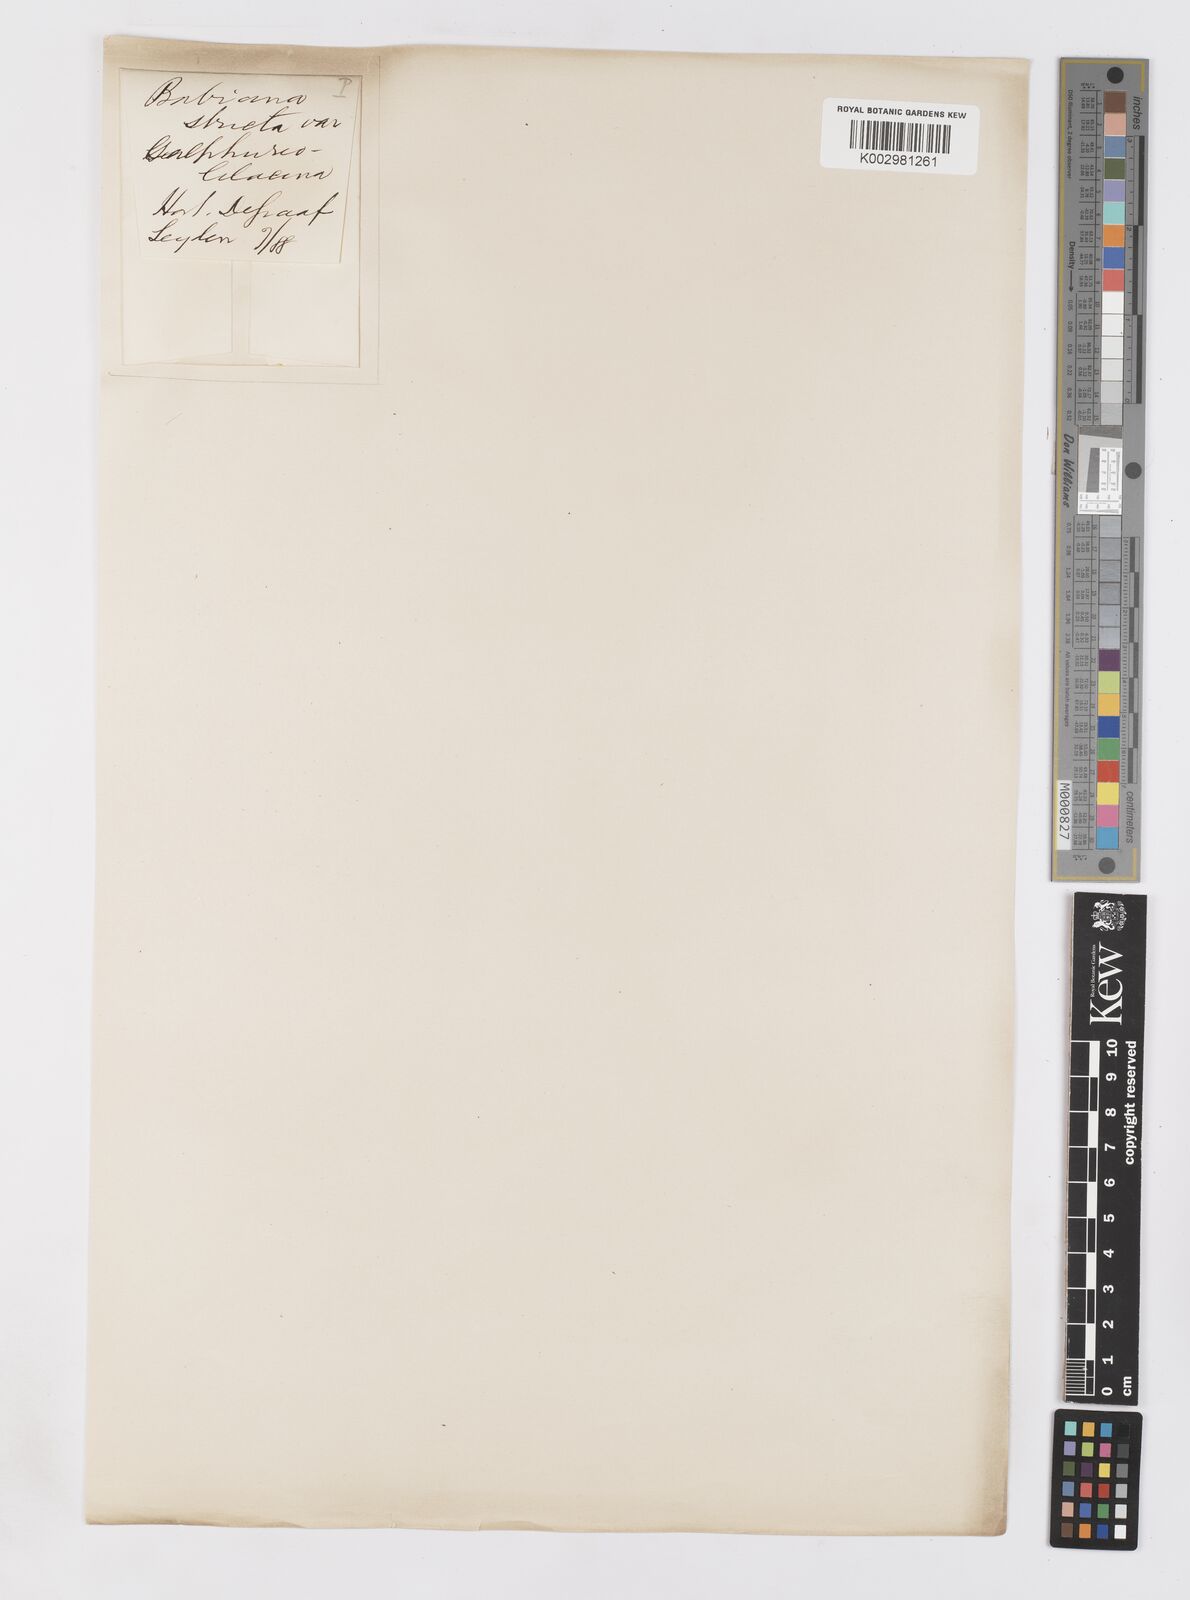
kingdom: Plantae
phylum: Tracheophyta
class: Liliopsida
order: Asparagales
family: Iridaceae
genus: Babiana
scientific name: Babiana regia
